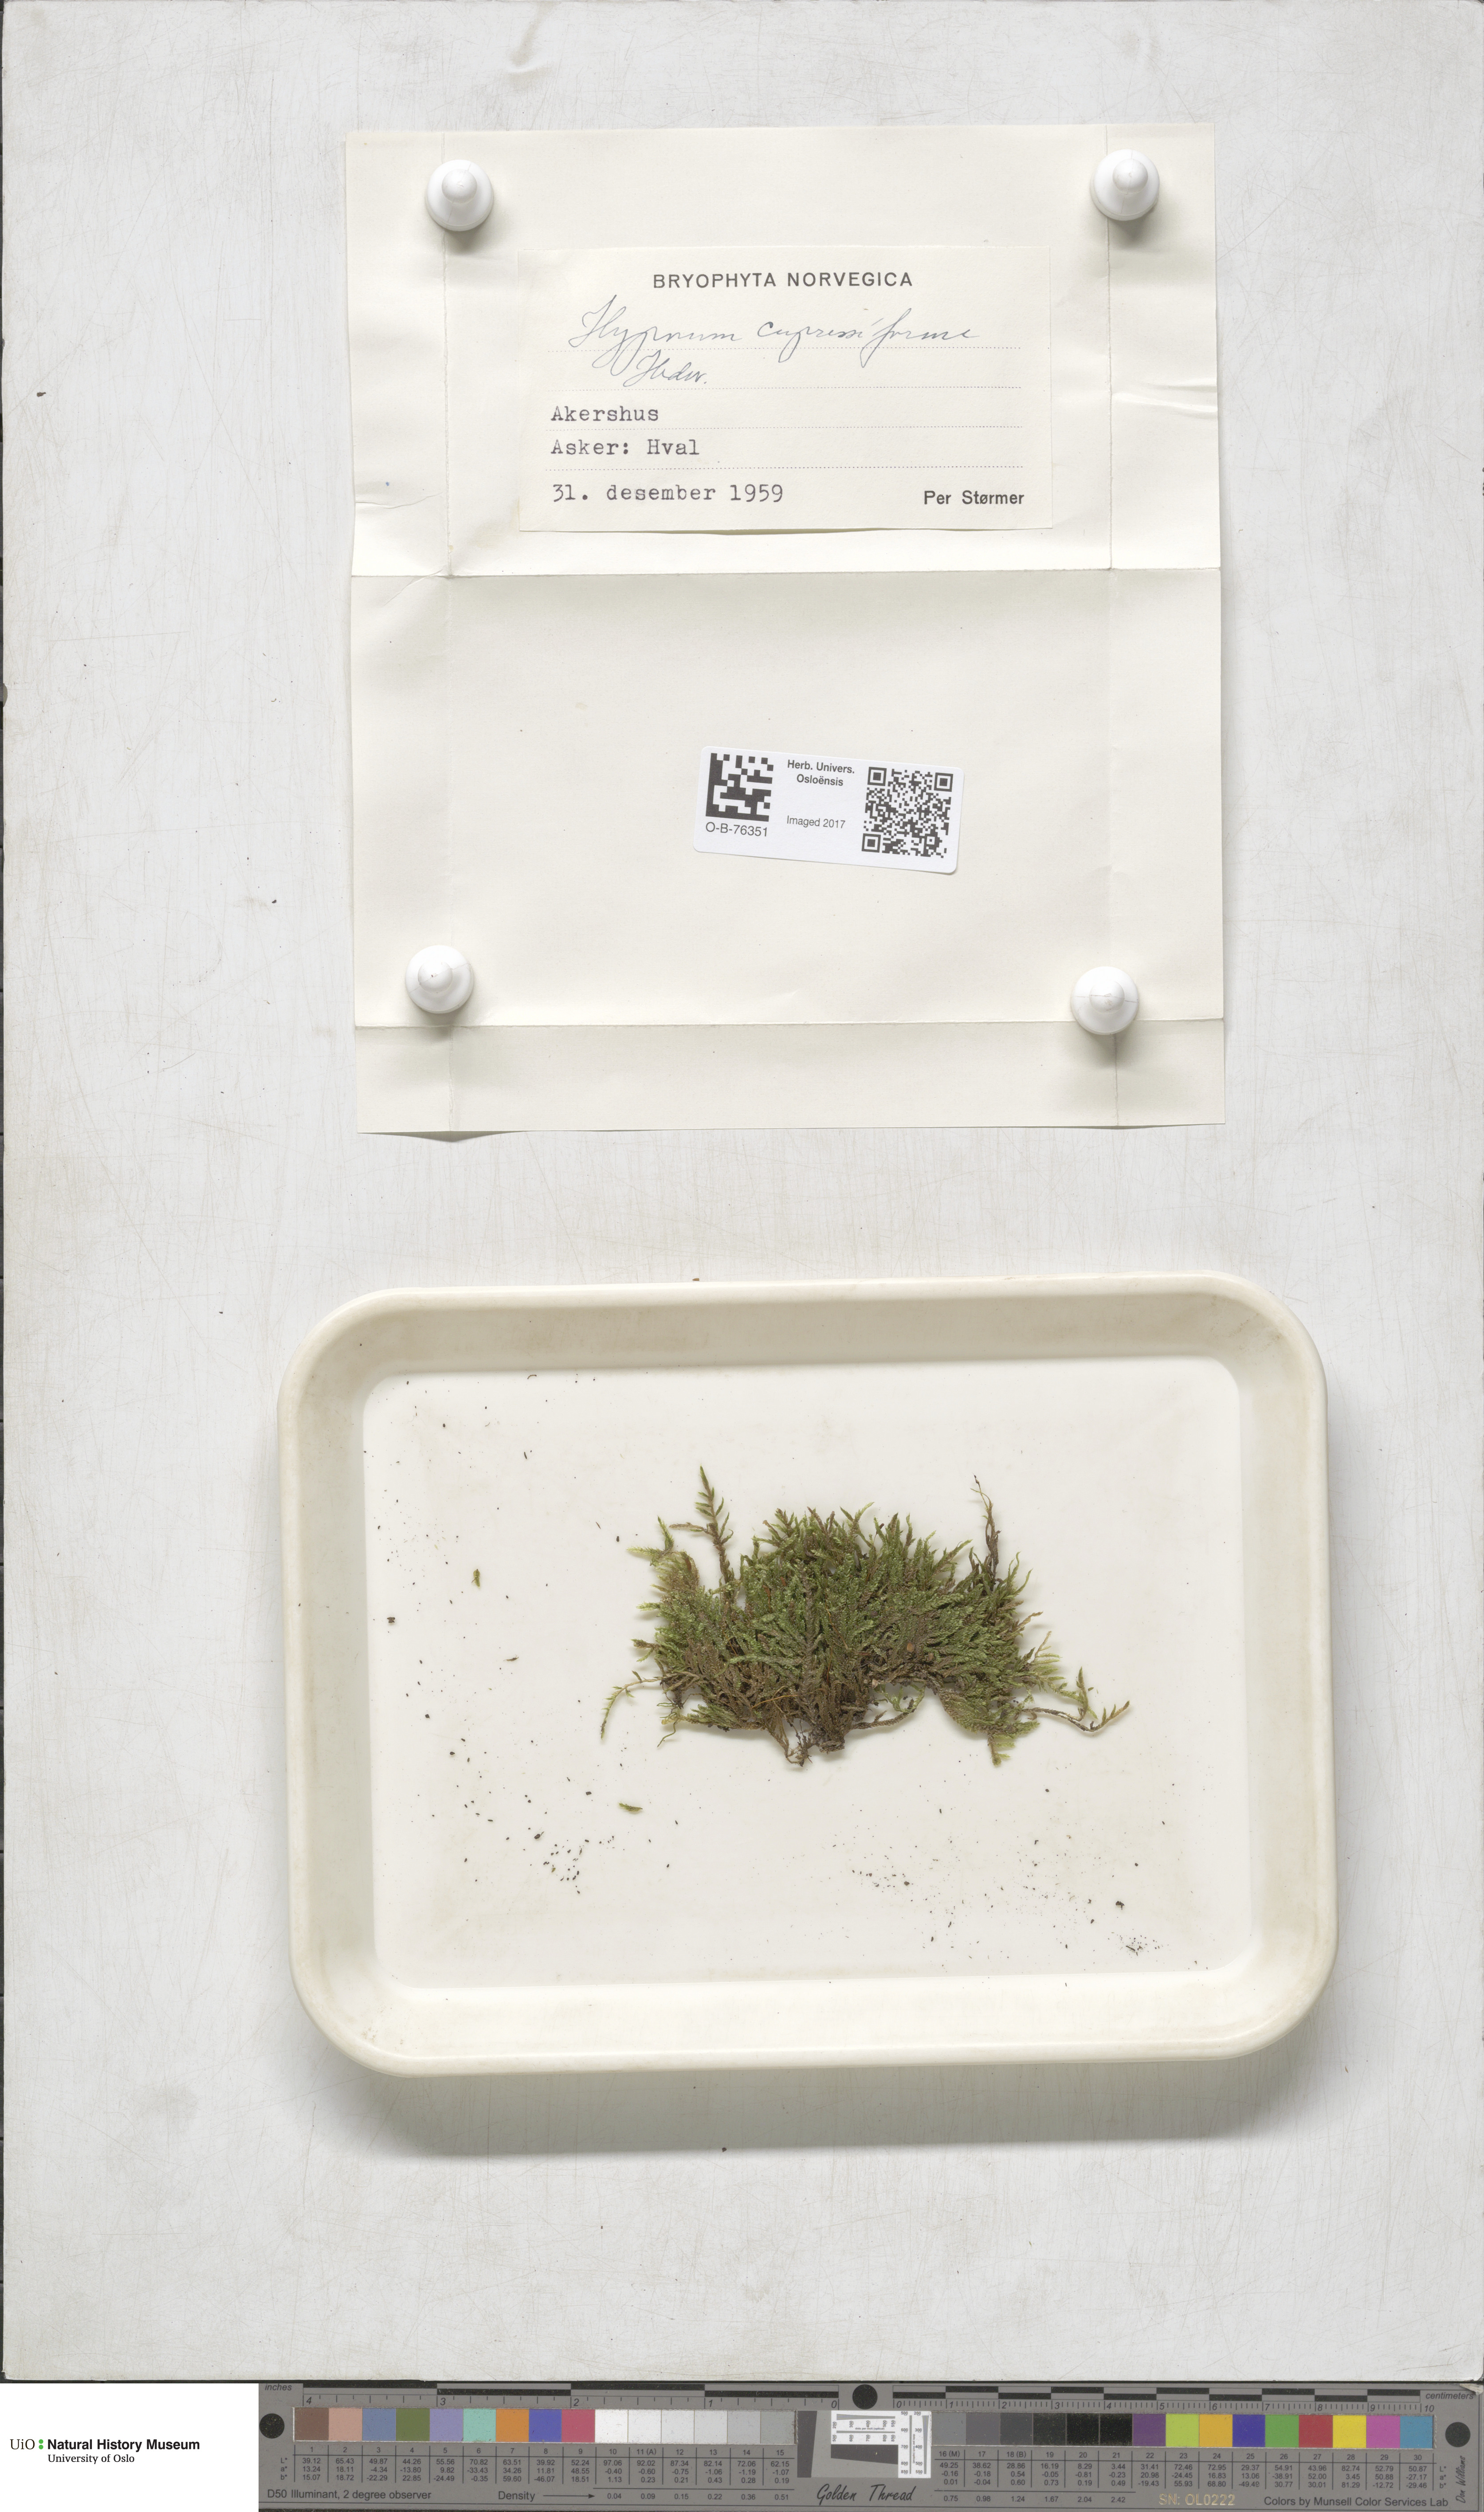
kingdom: Plantae
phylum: Bryophyta
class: Bryopsida
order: Hypnales
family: Hypnaceae
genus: Hypnum
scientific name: Hypnum cupressiforme
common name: Cypress-leaved plait-moss
